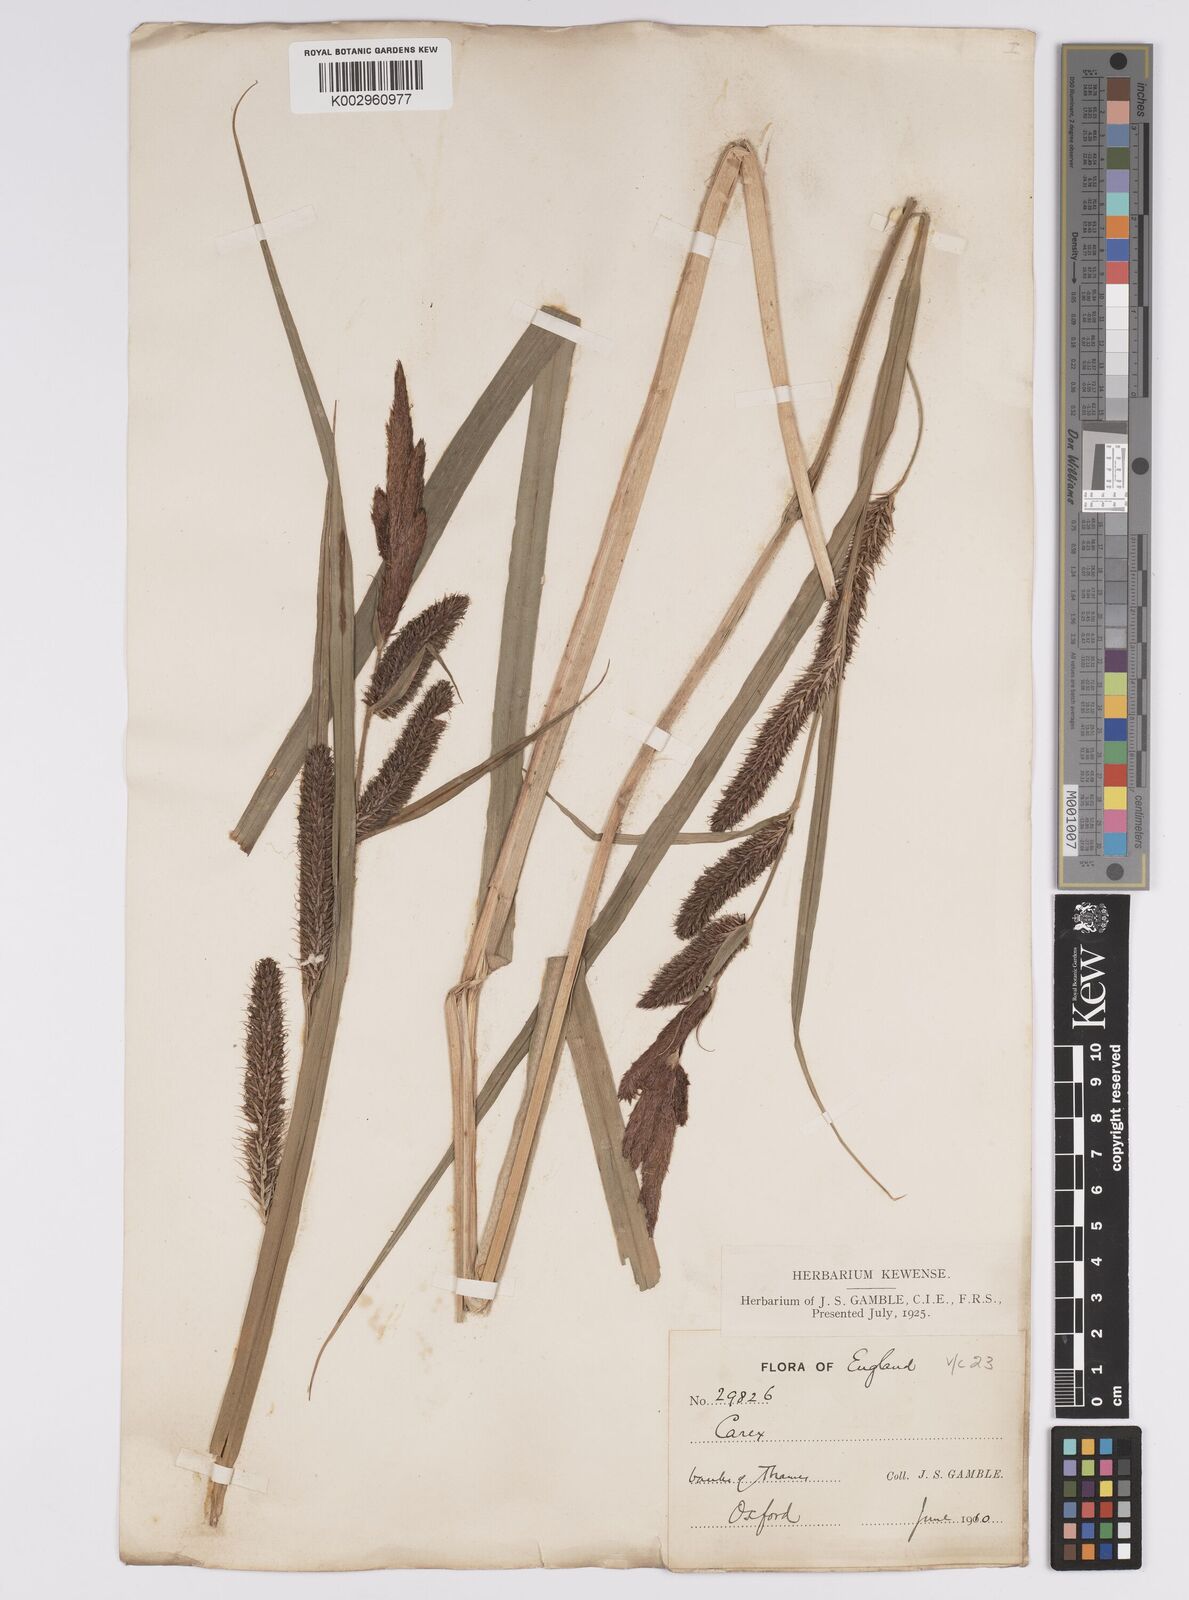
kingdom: Plantae
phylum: Tracheophyta
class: Liliopsida
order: Poales
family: Cyperaceae
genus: Carex
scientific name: Carex riparia
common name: Greater pond-sedge
